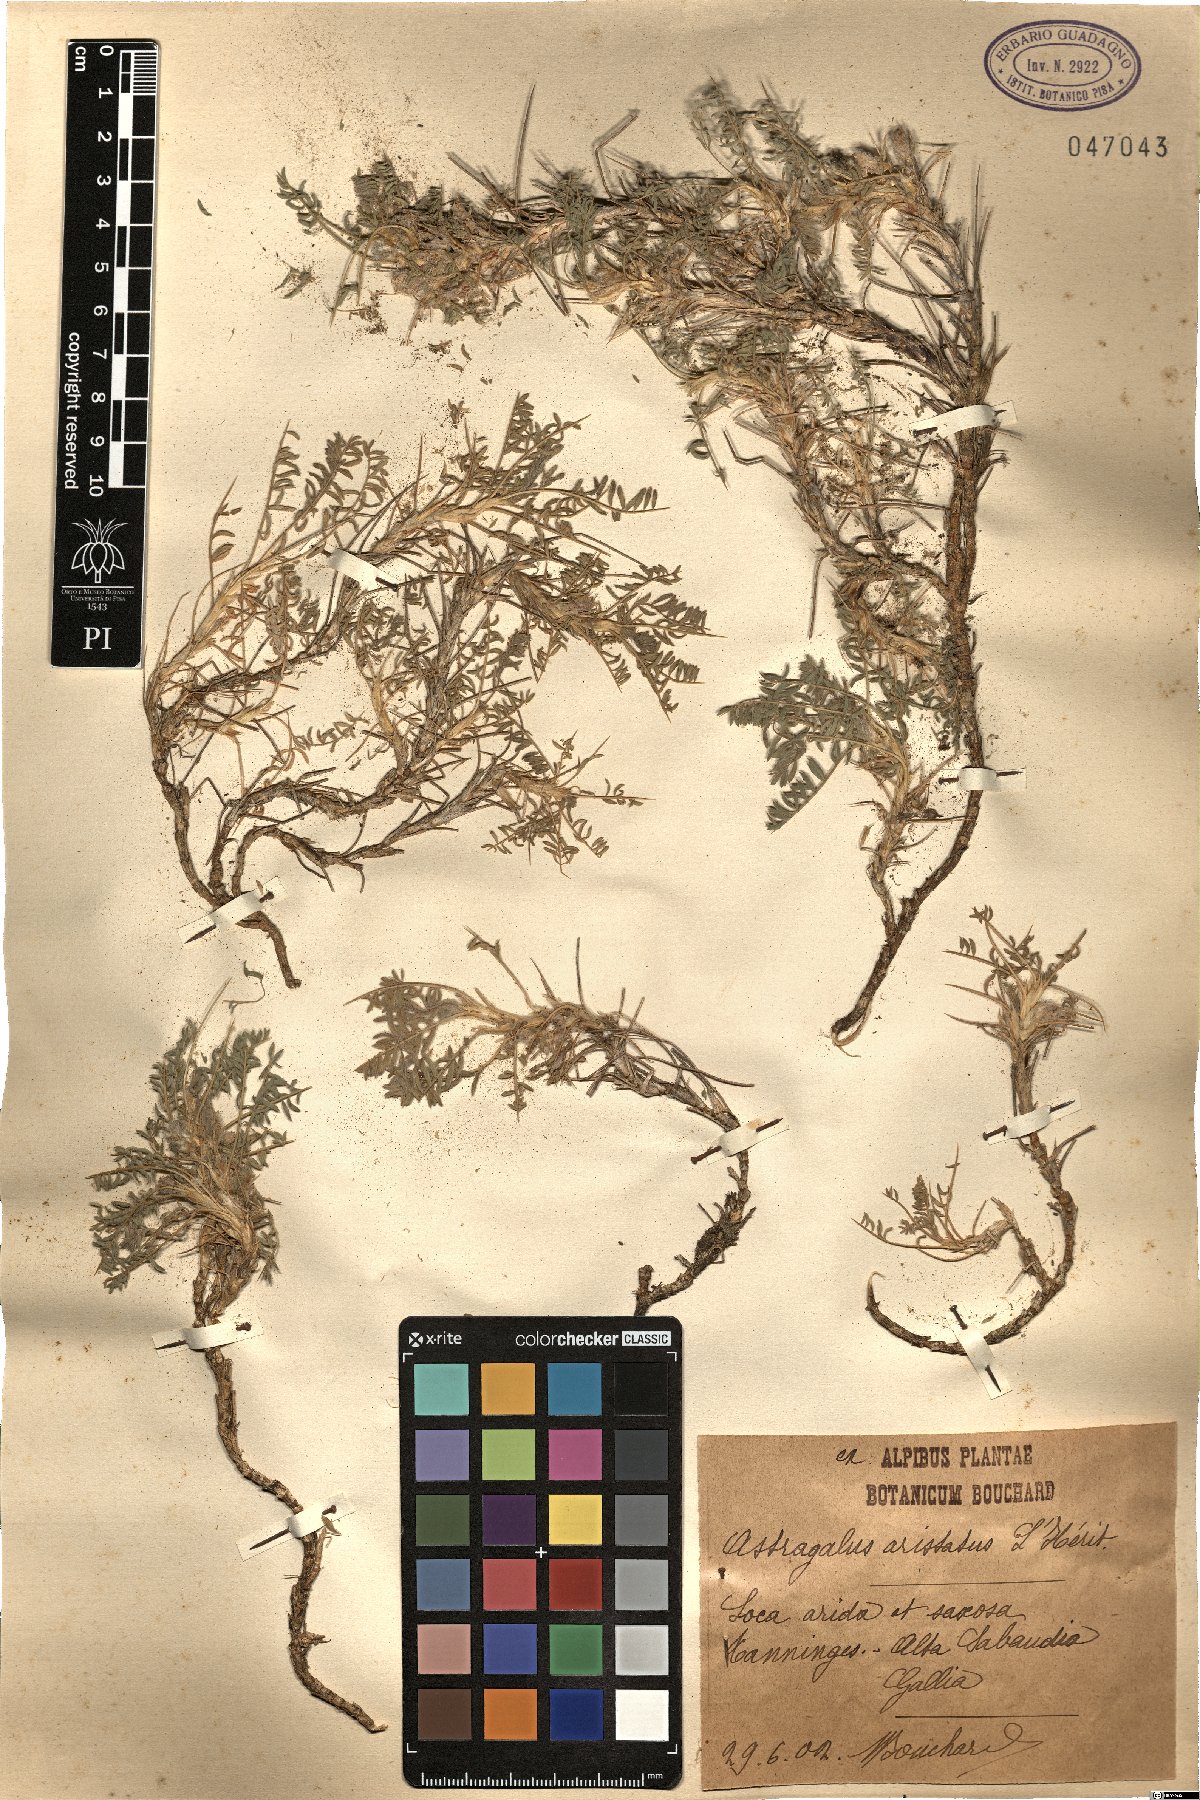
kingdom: Plantae
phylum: Tracheophyta
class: Magnoliopsida
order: Fabales
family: Fabaceae
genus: Astragalus
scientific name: Astragalus
